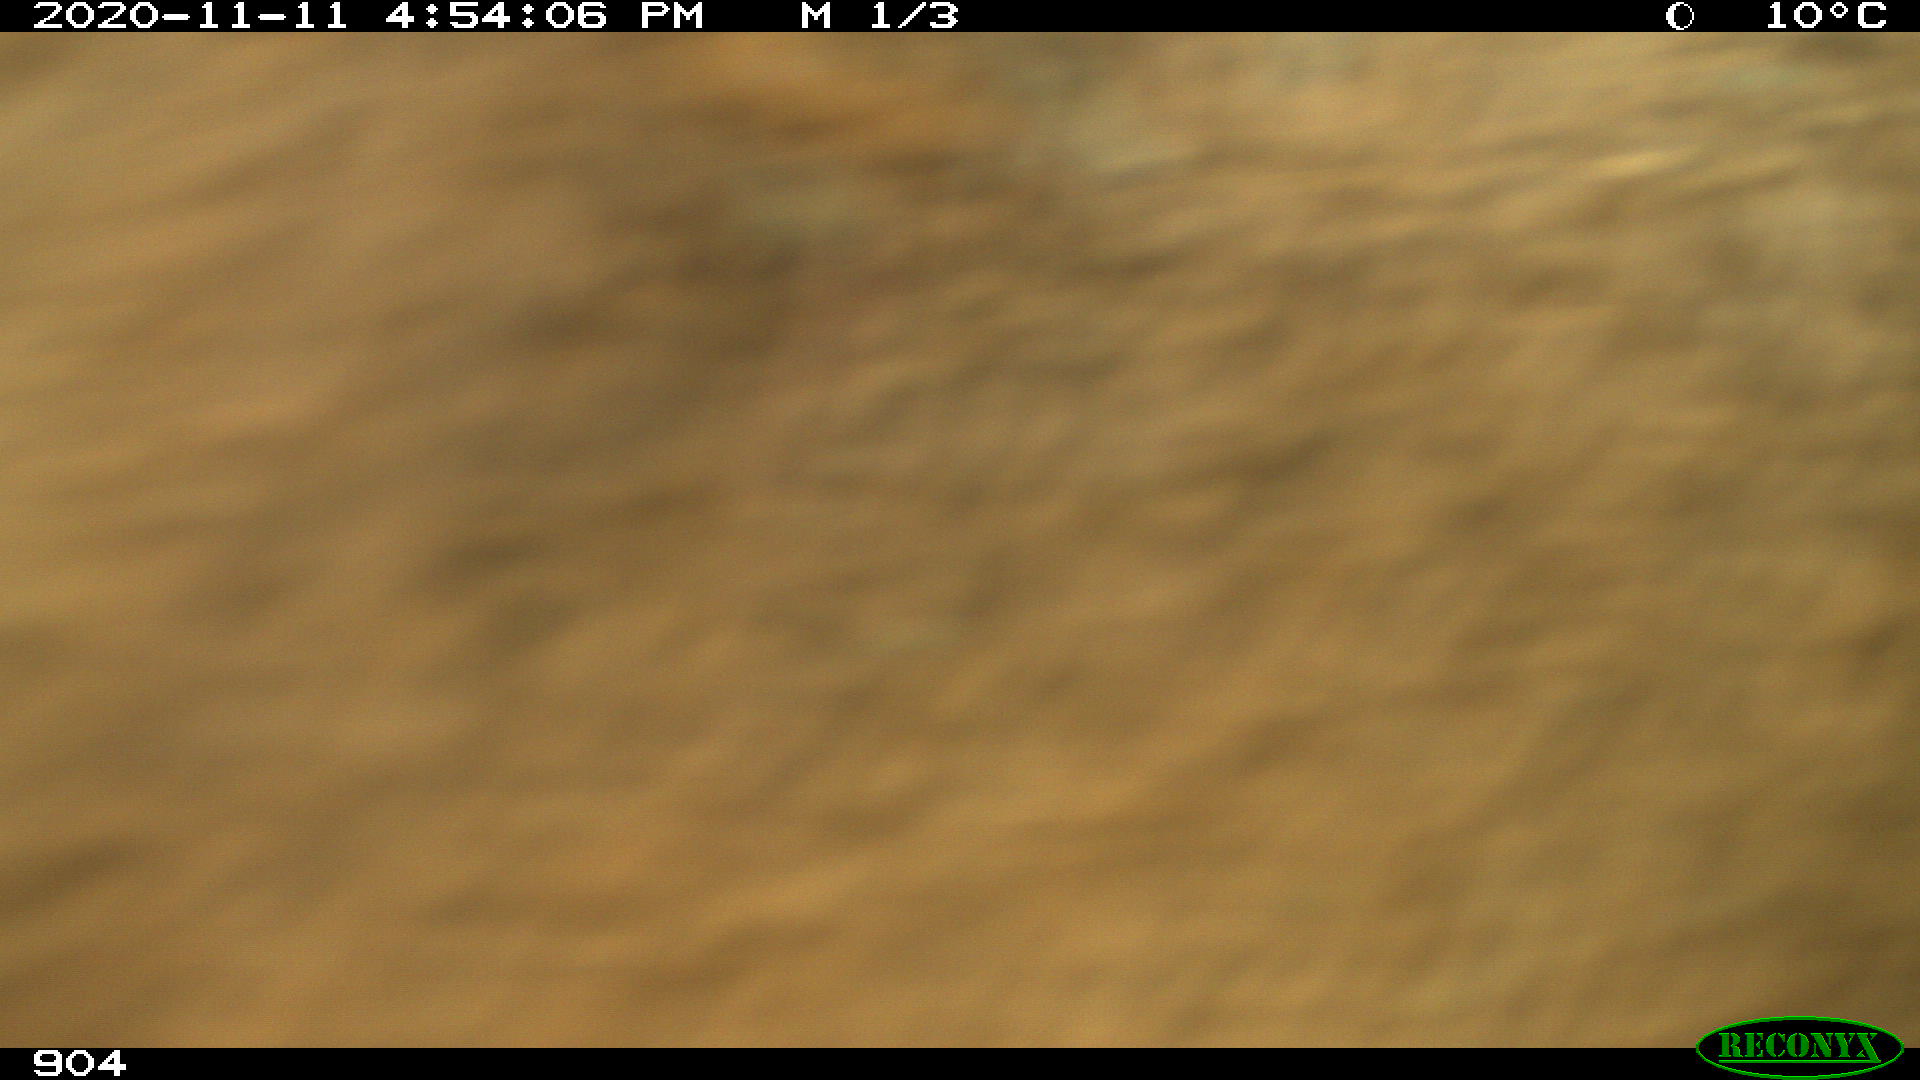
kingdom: Animalia
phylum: Chordata
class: Mammalia
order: Artiodactyla
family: Bovidae
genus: Bos
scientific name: Bos taurus
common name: Domesticated cattle
